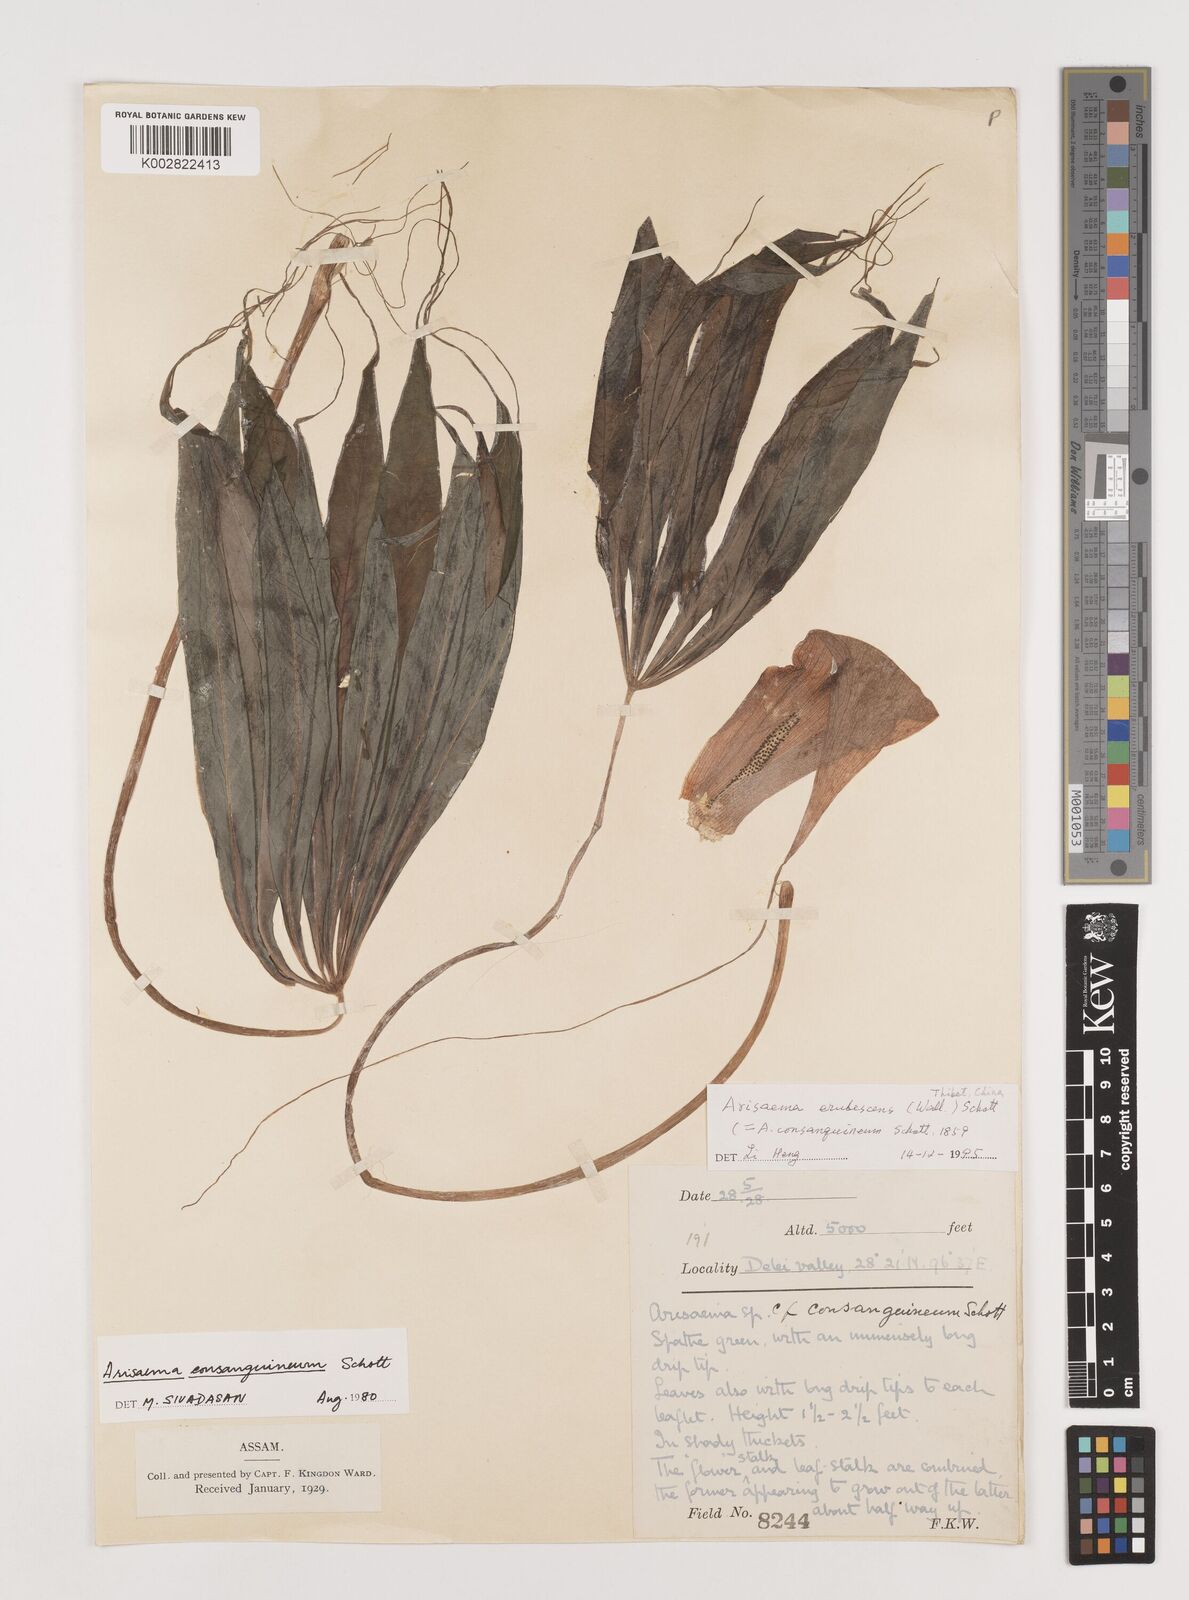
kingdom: Plantae
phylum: Tracheophyta
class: Liliopsida
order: Alismatales
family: Araceae
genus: Arisaema
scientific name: Arisaema erubescens
